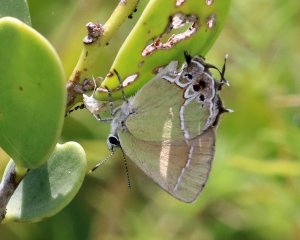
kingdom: Animalia
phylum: Arthropoda
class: Insecta
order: Lepidoptera
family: Lycaenidae
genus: Xamia
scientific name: Xamia xami
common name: Xami Hairstreak
